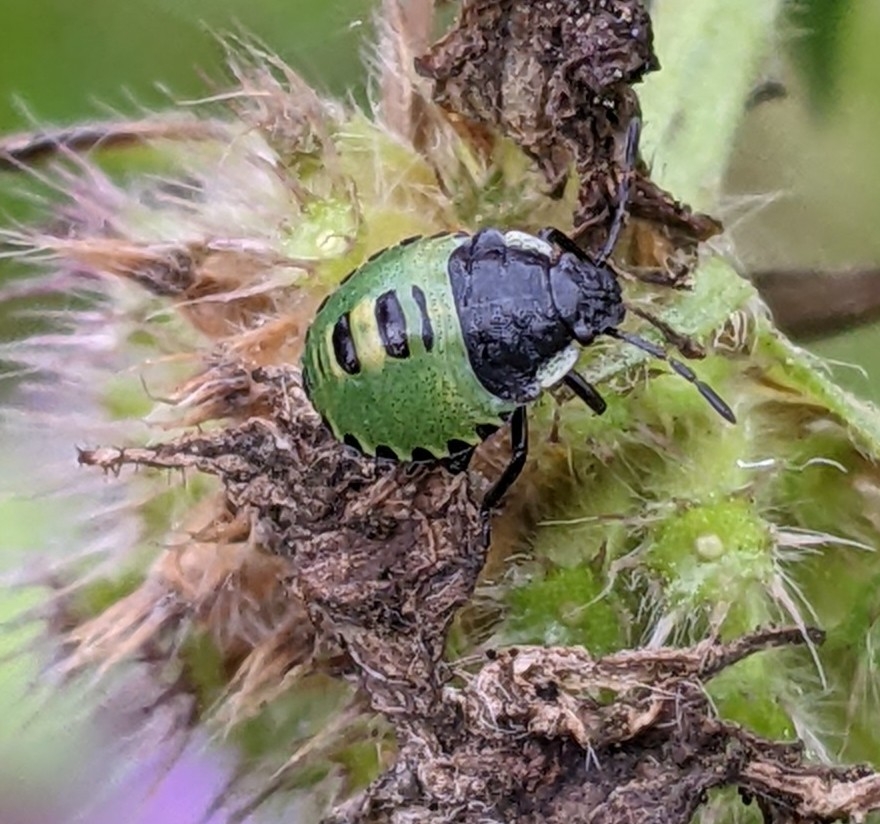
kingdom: Animalia
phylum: Arthropoda
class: Insecta
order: Hemiptera
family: Pentatomidae
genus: Palomena
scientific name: Palomena prasina
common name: Grøn bredtæge
